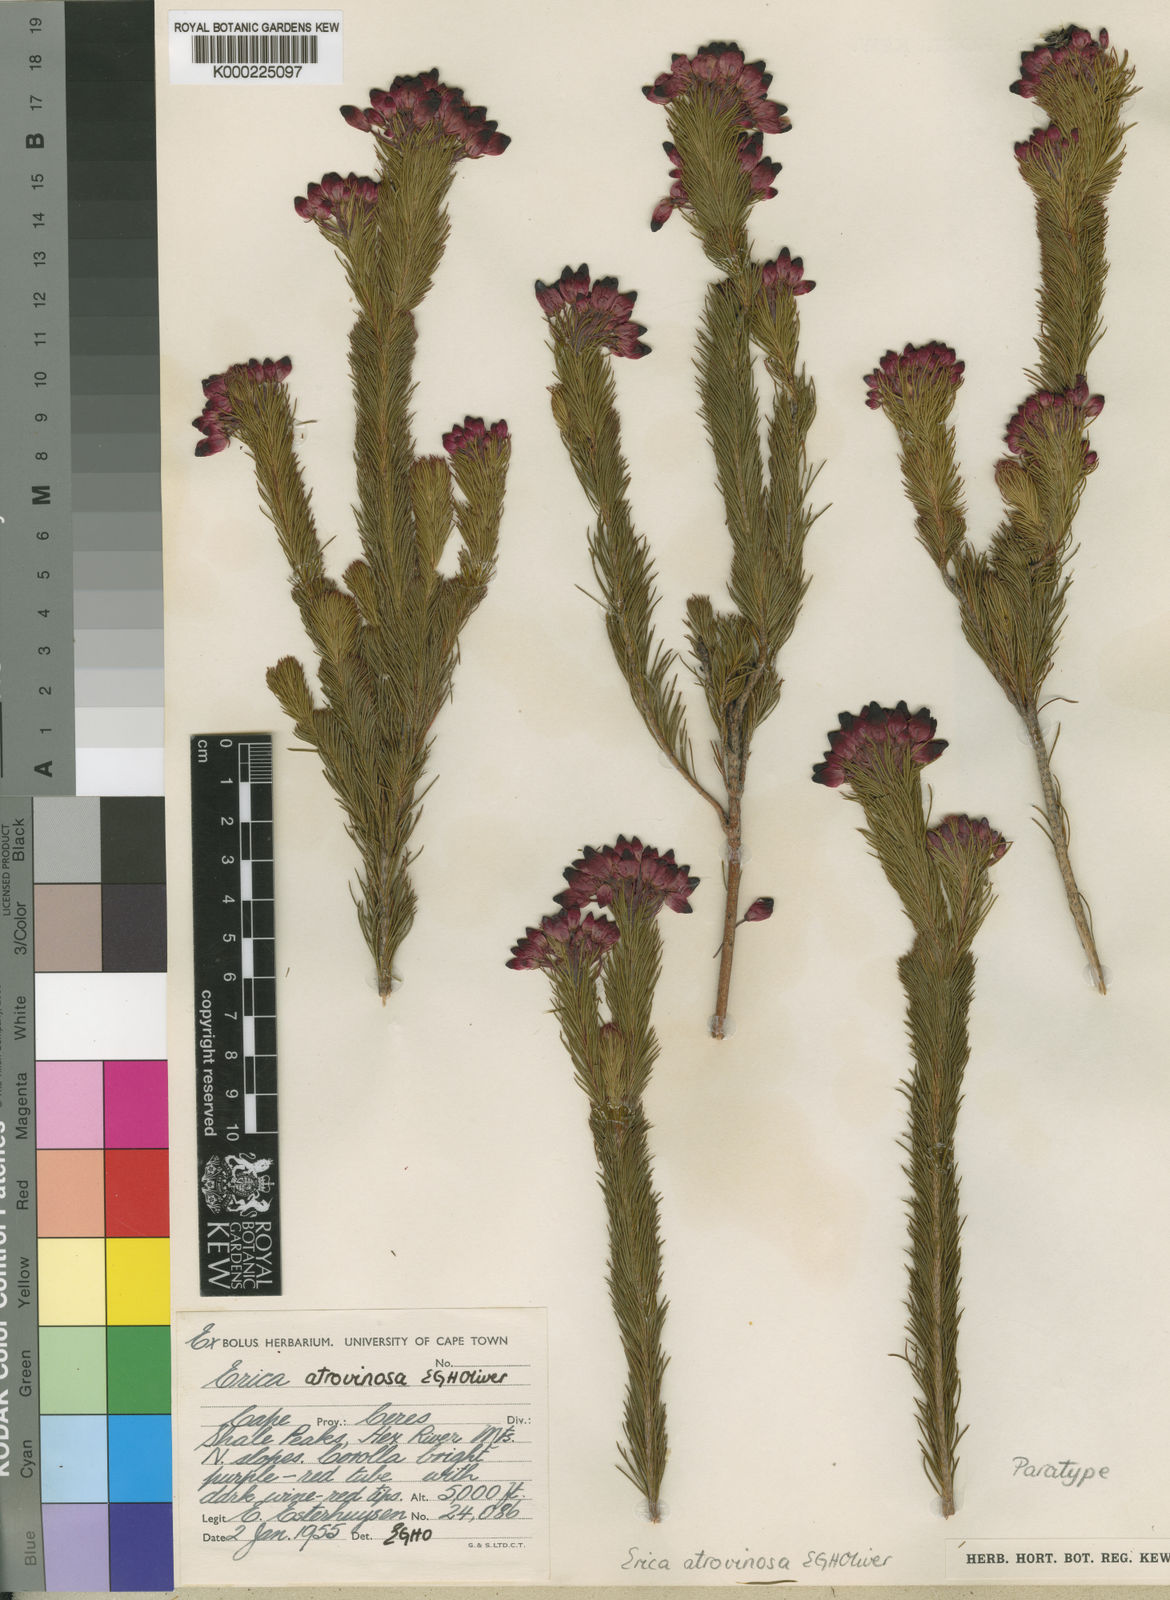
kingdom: Plantae
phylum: Tracheophyta
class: Magnoliopsida
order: Ericales
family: Ericaceae
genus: Erica
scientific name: Erica atrovinosa
